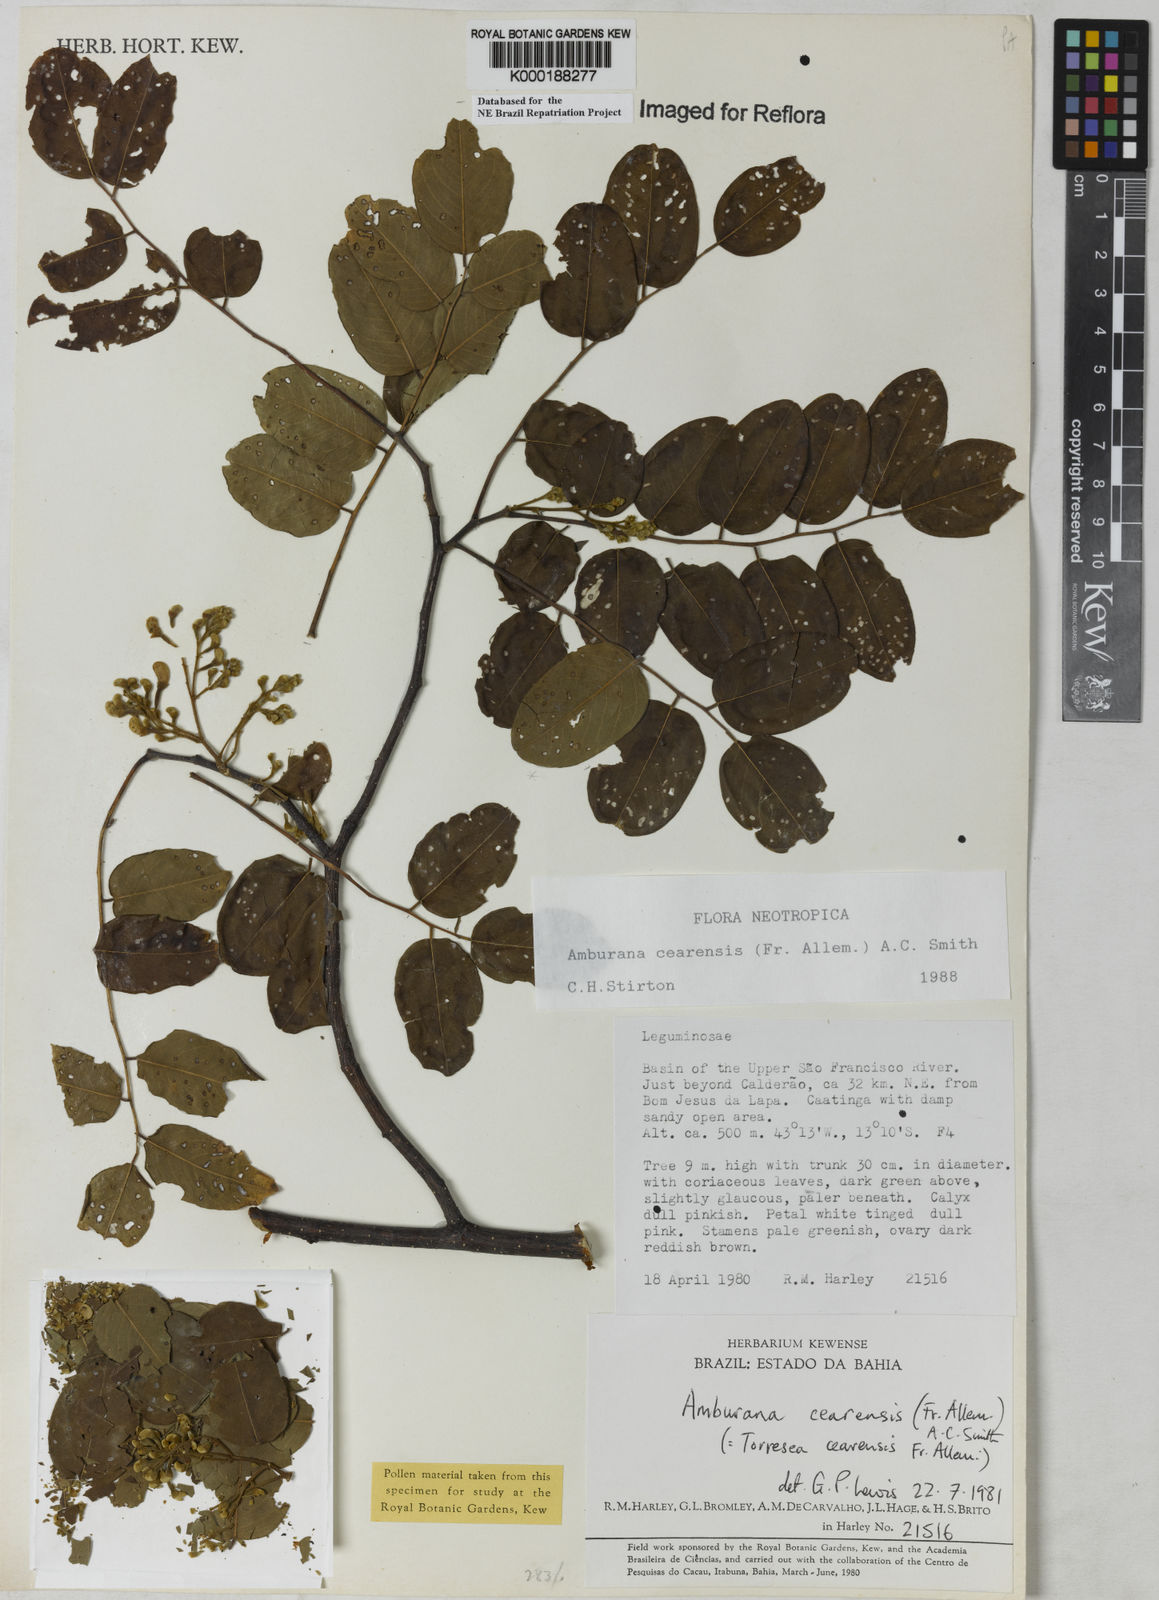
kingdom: Plantae
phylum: Tracheophyta
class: Magnoliopsida
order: Fabales
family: Fabaceae
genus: Amburana
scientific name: Amburana
